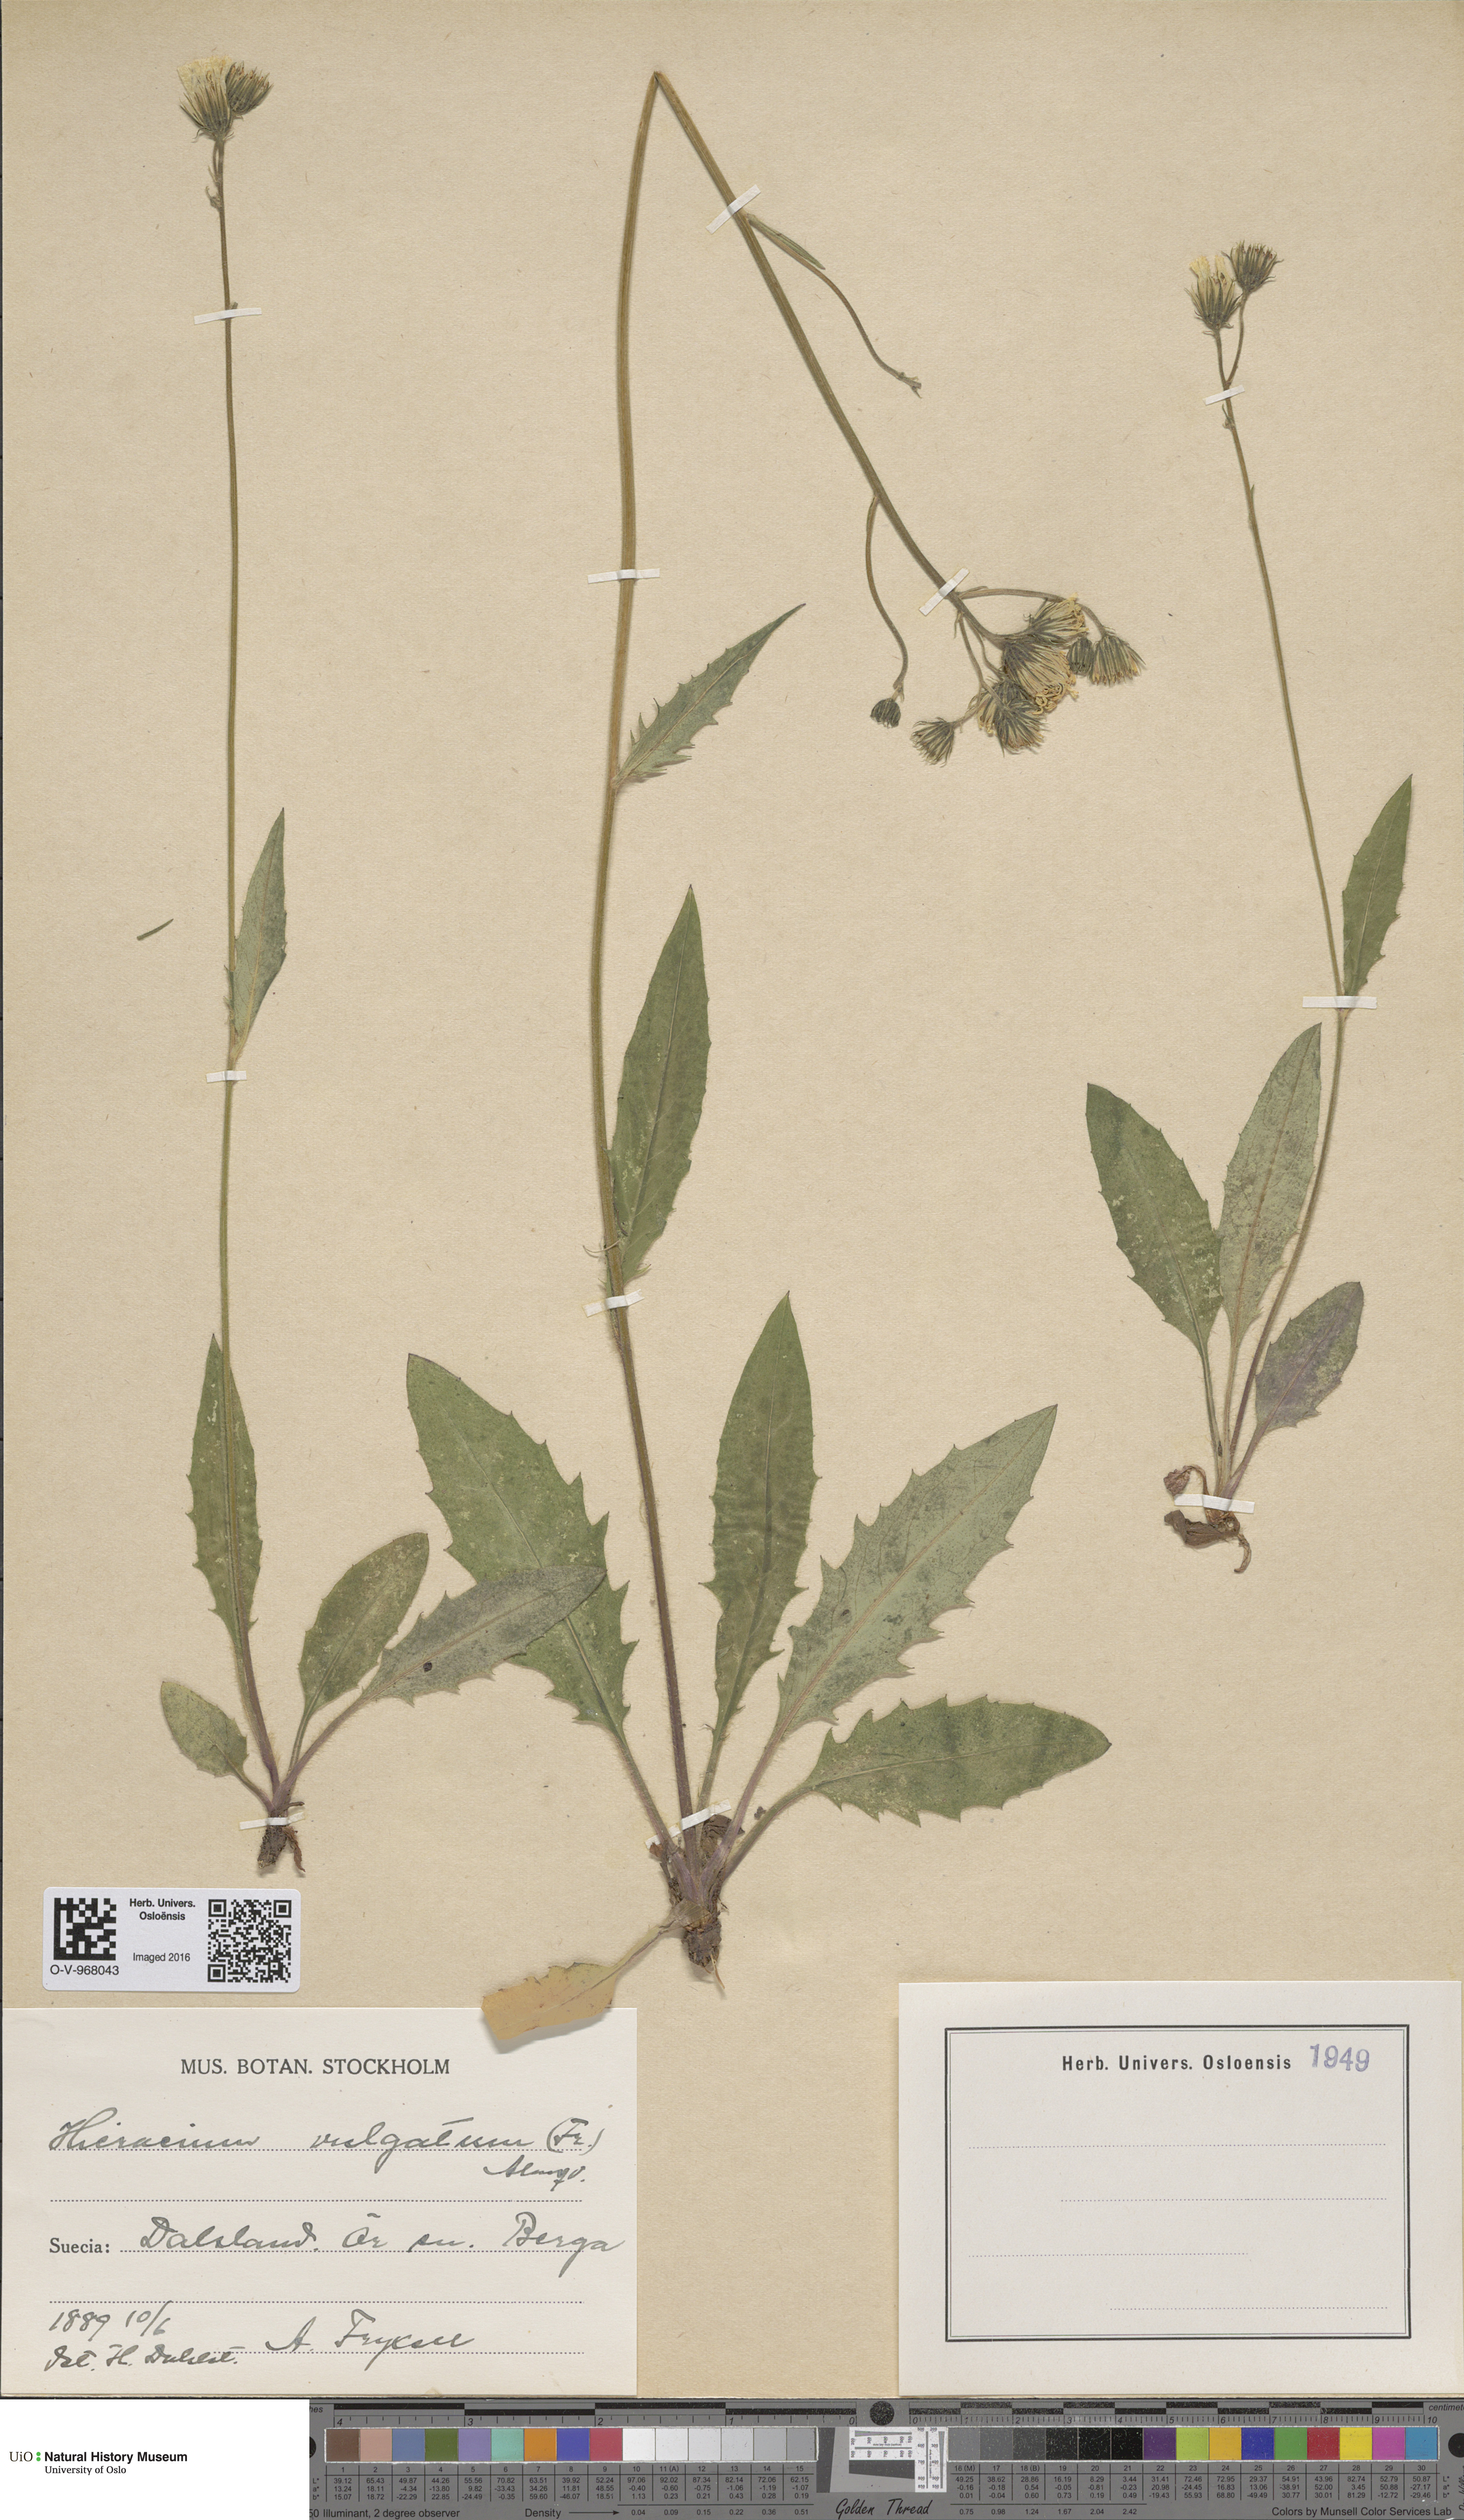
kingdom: Plantae
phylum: Tracheophyta
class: Magnoliopsida
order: Asterales
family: Asteraceae
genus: Hieracium
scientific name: Hieracium vulgatum
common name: Common hawkweed
